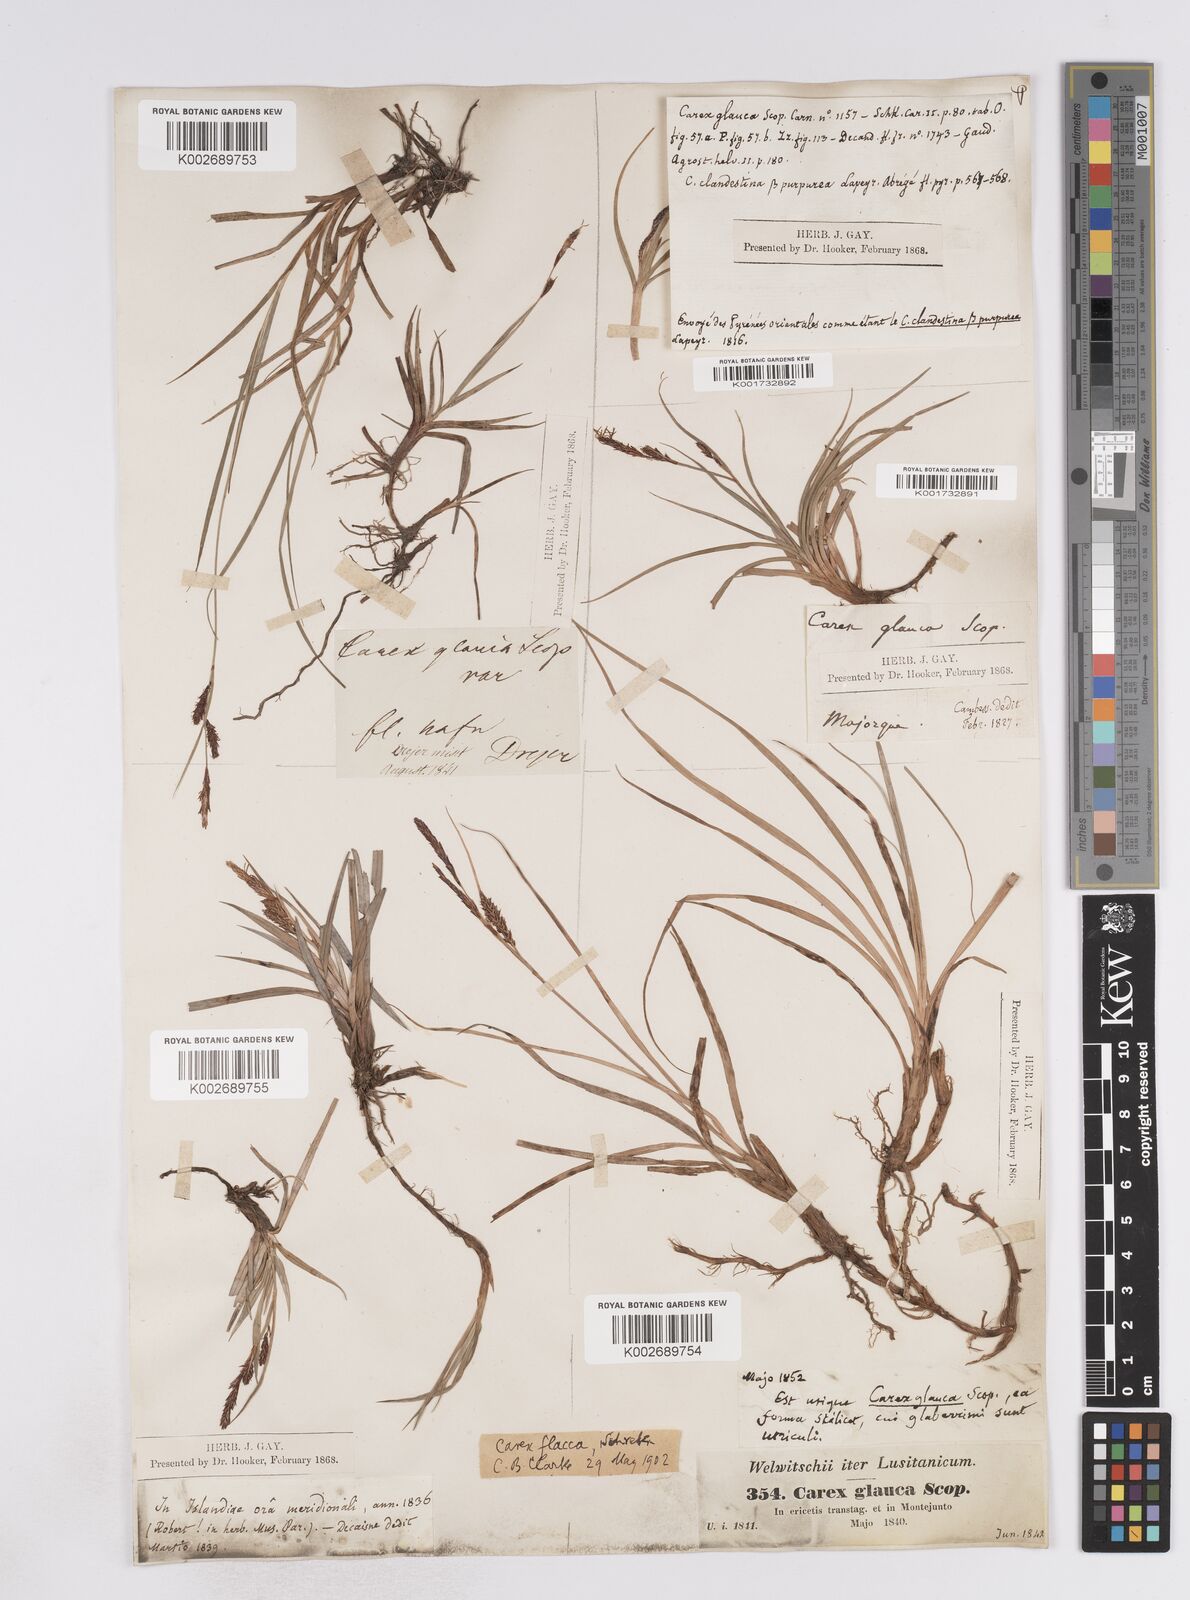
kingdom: Plantae
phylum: Tracheophyta
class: Liliopsida
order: Poales
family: Cyperaceae
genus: Carex
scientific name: Carex flacca
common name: Glaucous sedge
